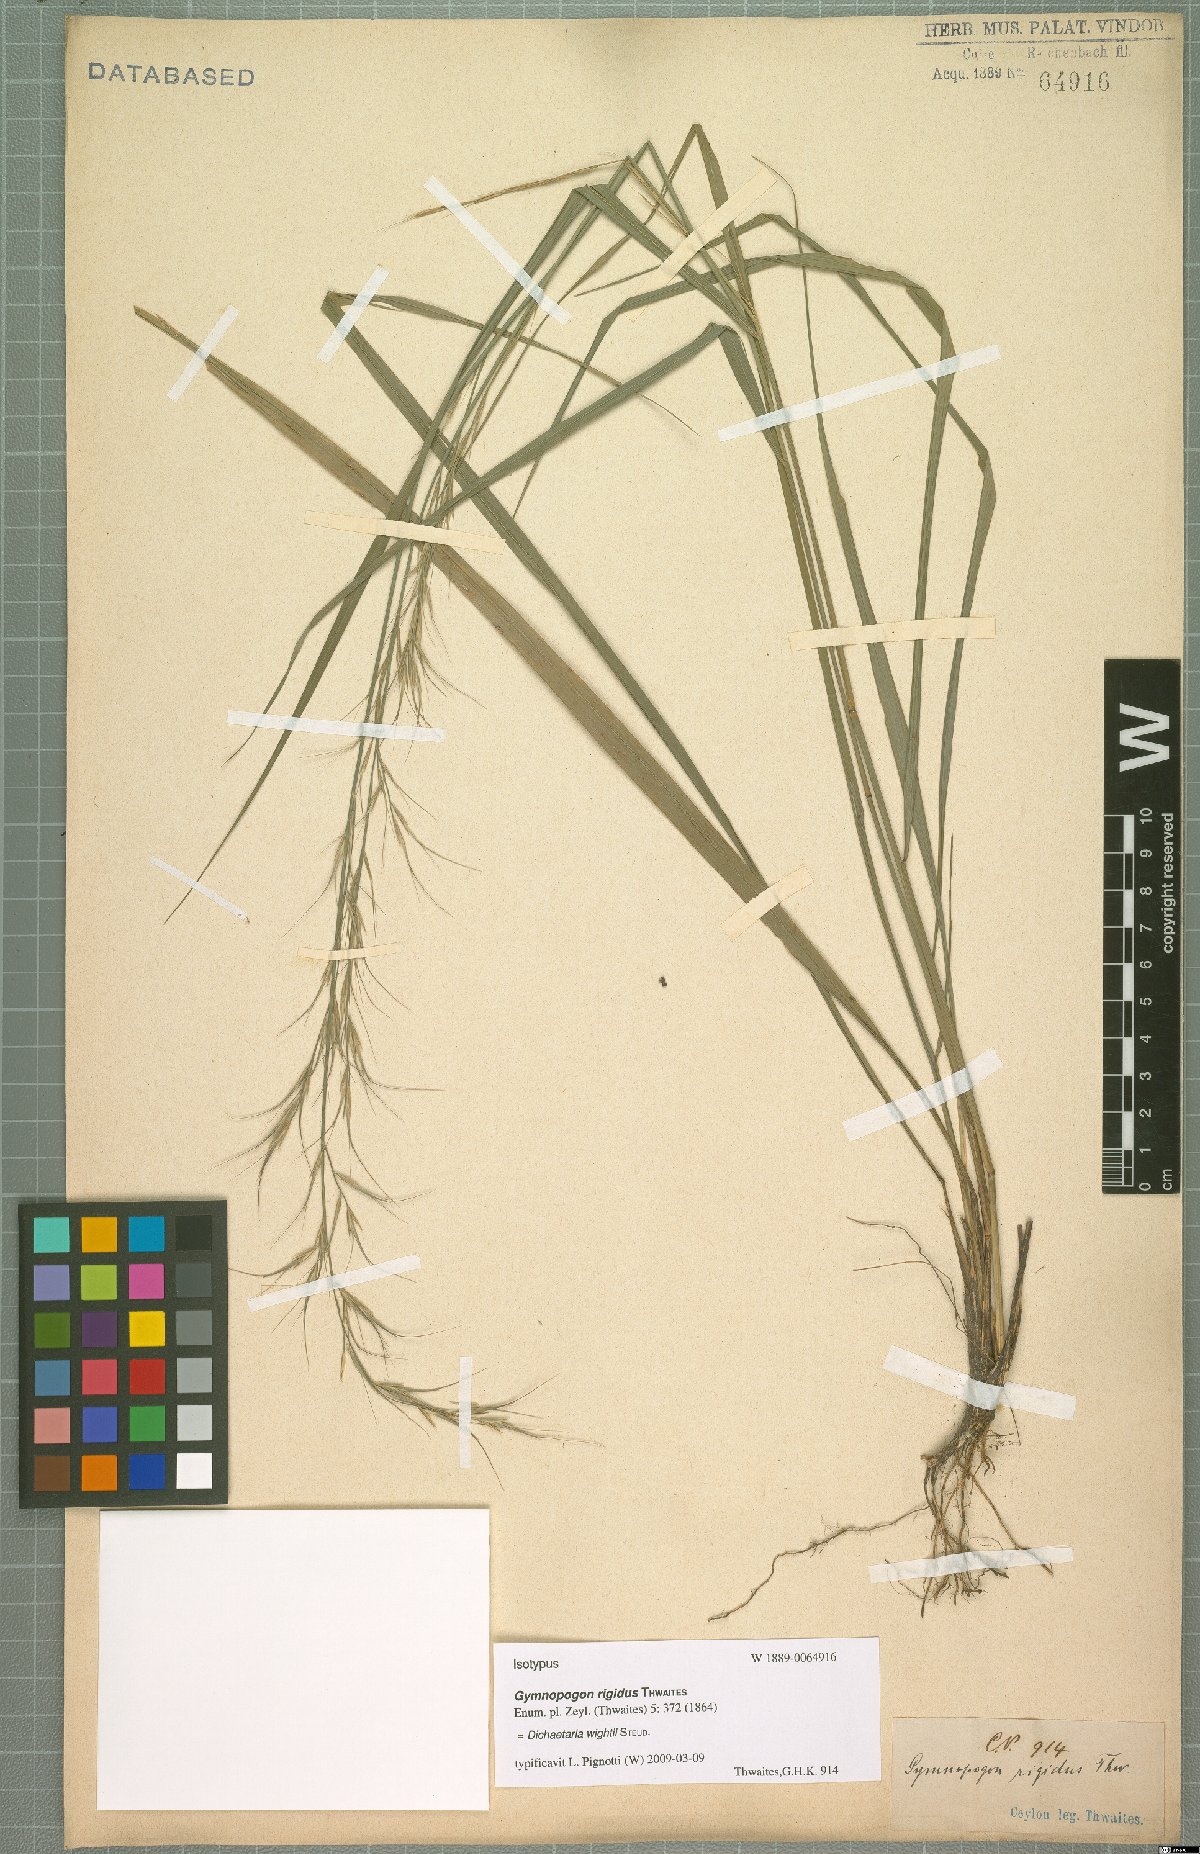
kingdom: Plantae
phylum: Tracheophyta
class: Liliopsida
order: Poales
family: Poaceae
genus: Dichaetaria
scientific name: Dichaetaria wightii
